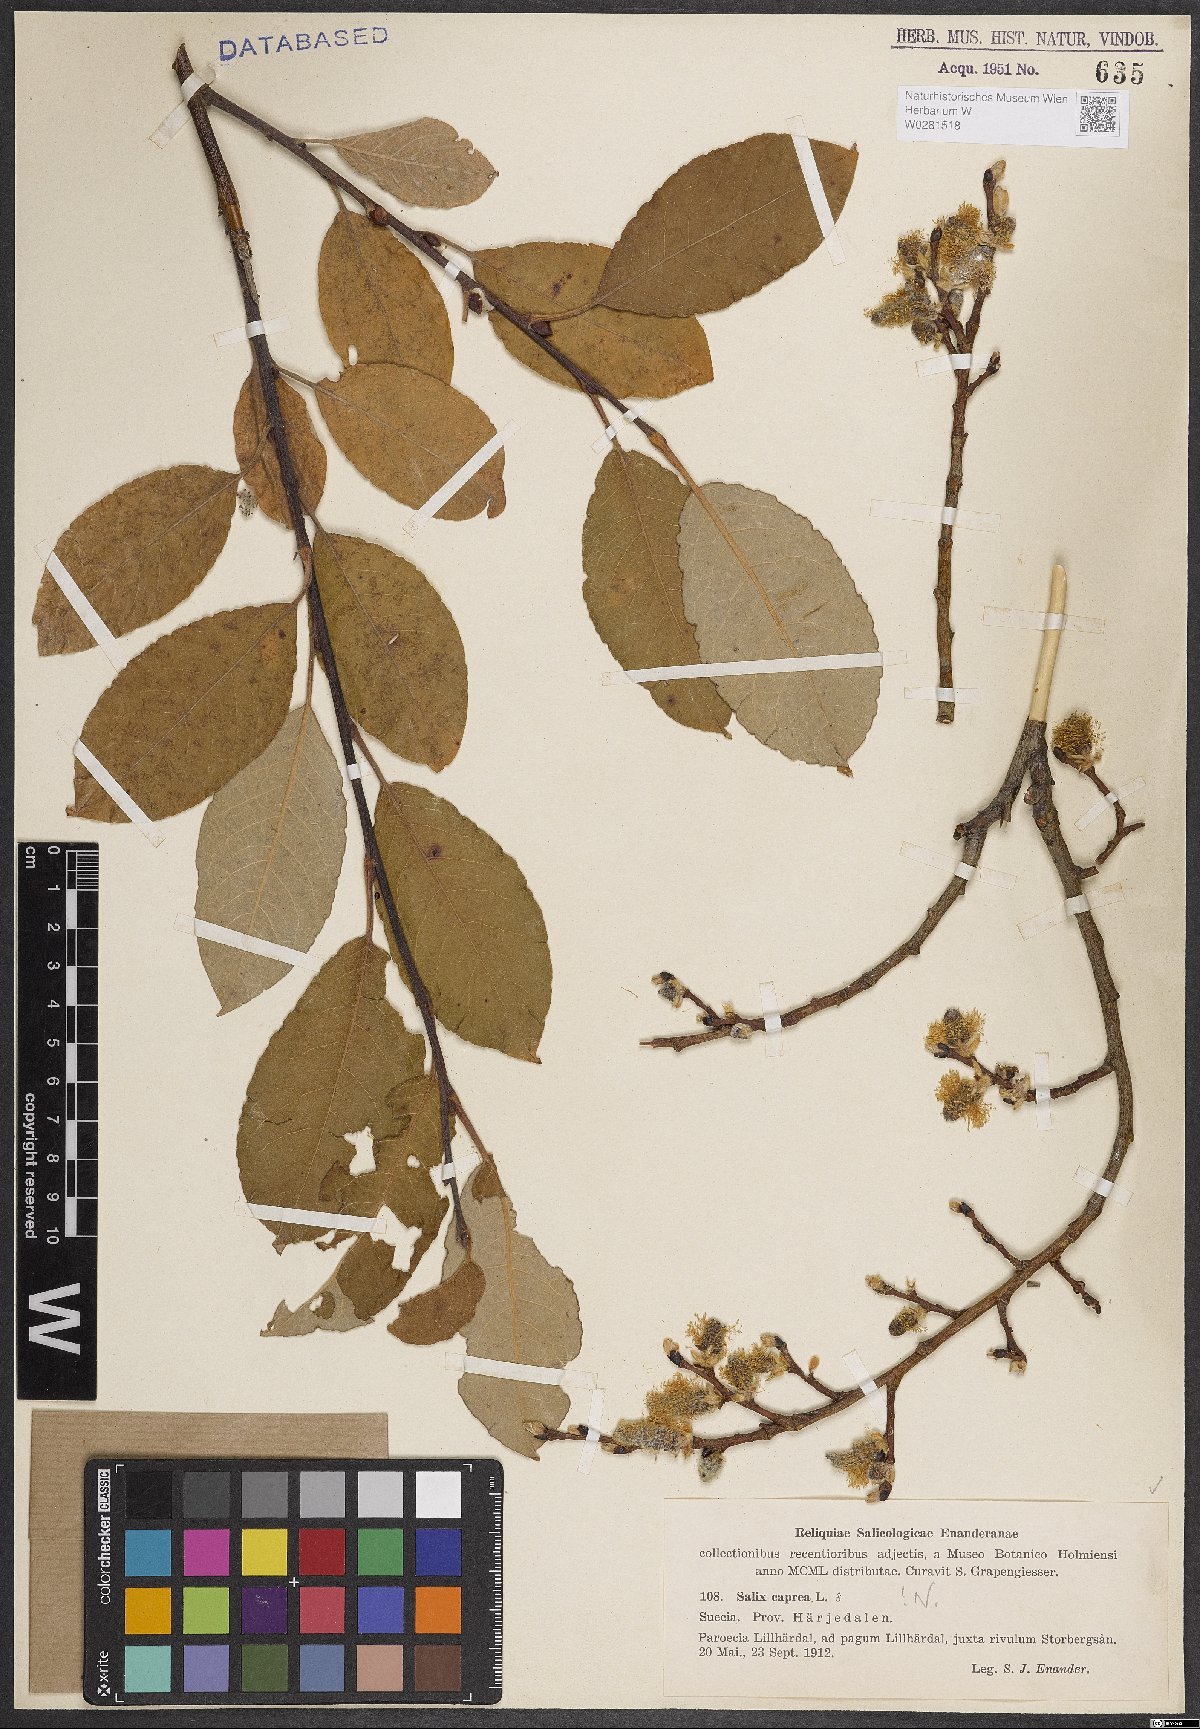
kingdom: Plantae
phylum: Tracheophyta
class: Magnoliopsida
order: Malpighiales
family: Salicaceae
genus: Salix
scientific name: Salix caprea
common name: Goat willow
